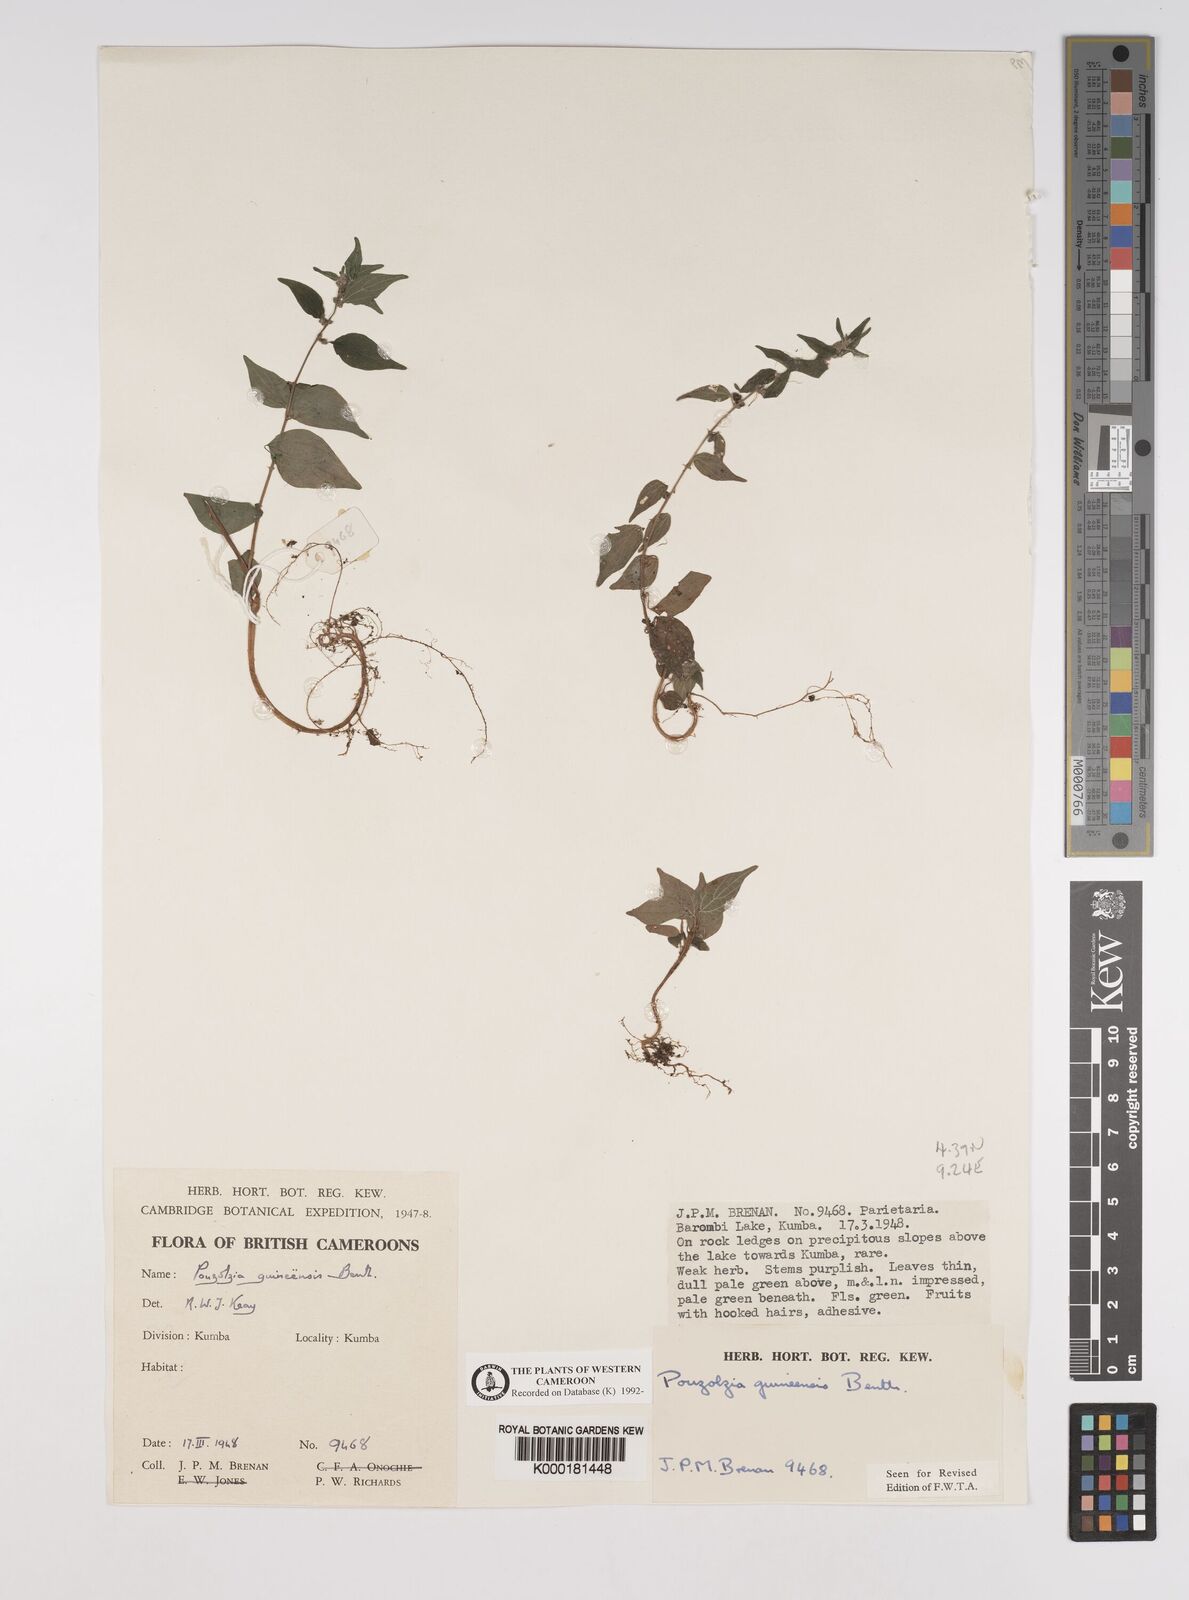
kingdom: Plantae
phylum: Tracheophyta
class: Magnoliopsida
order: Rosales
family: Urticaceae
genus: Pouzolzia
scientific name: Pouzolzia guineensis
